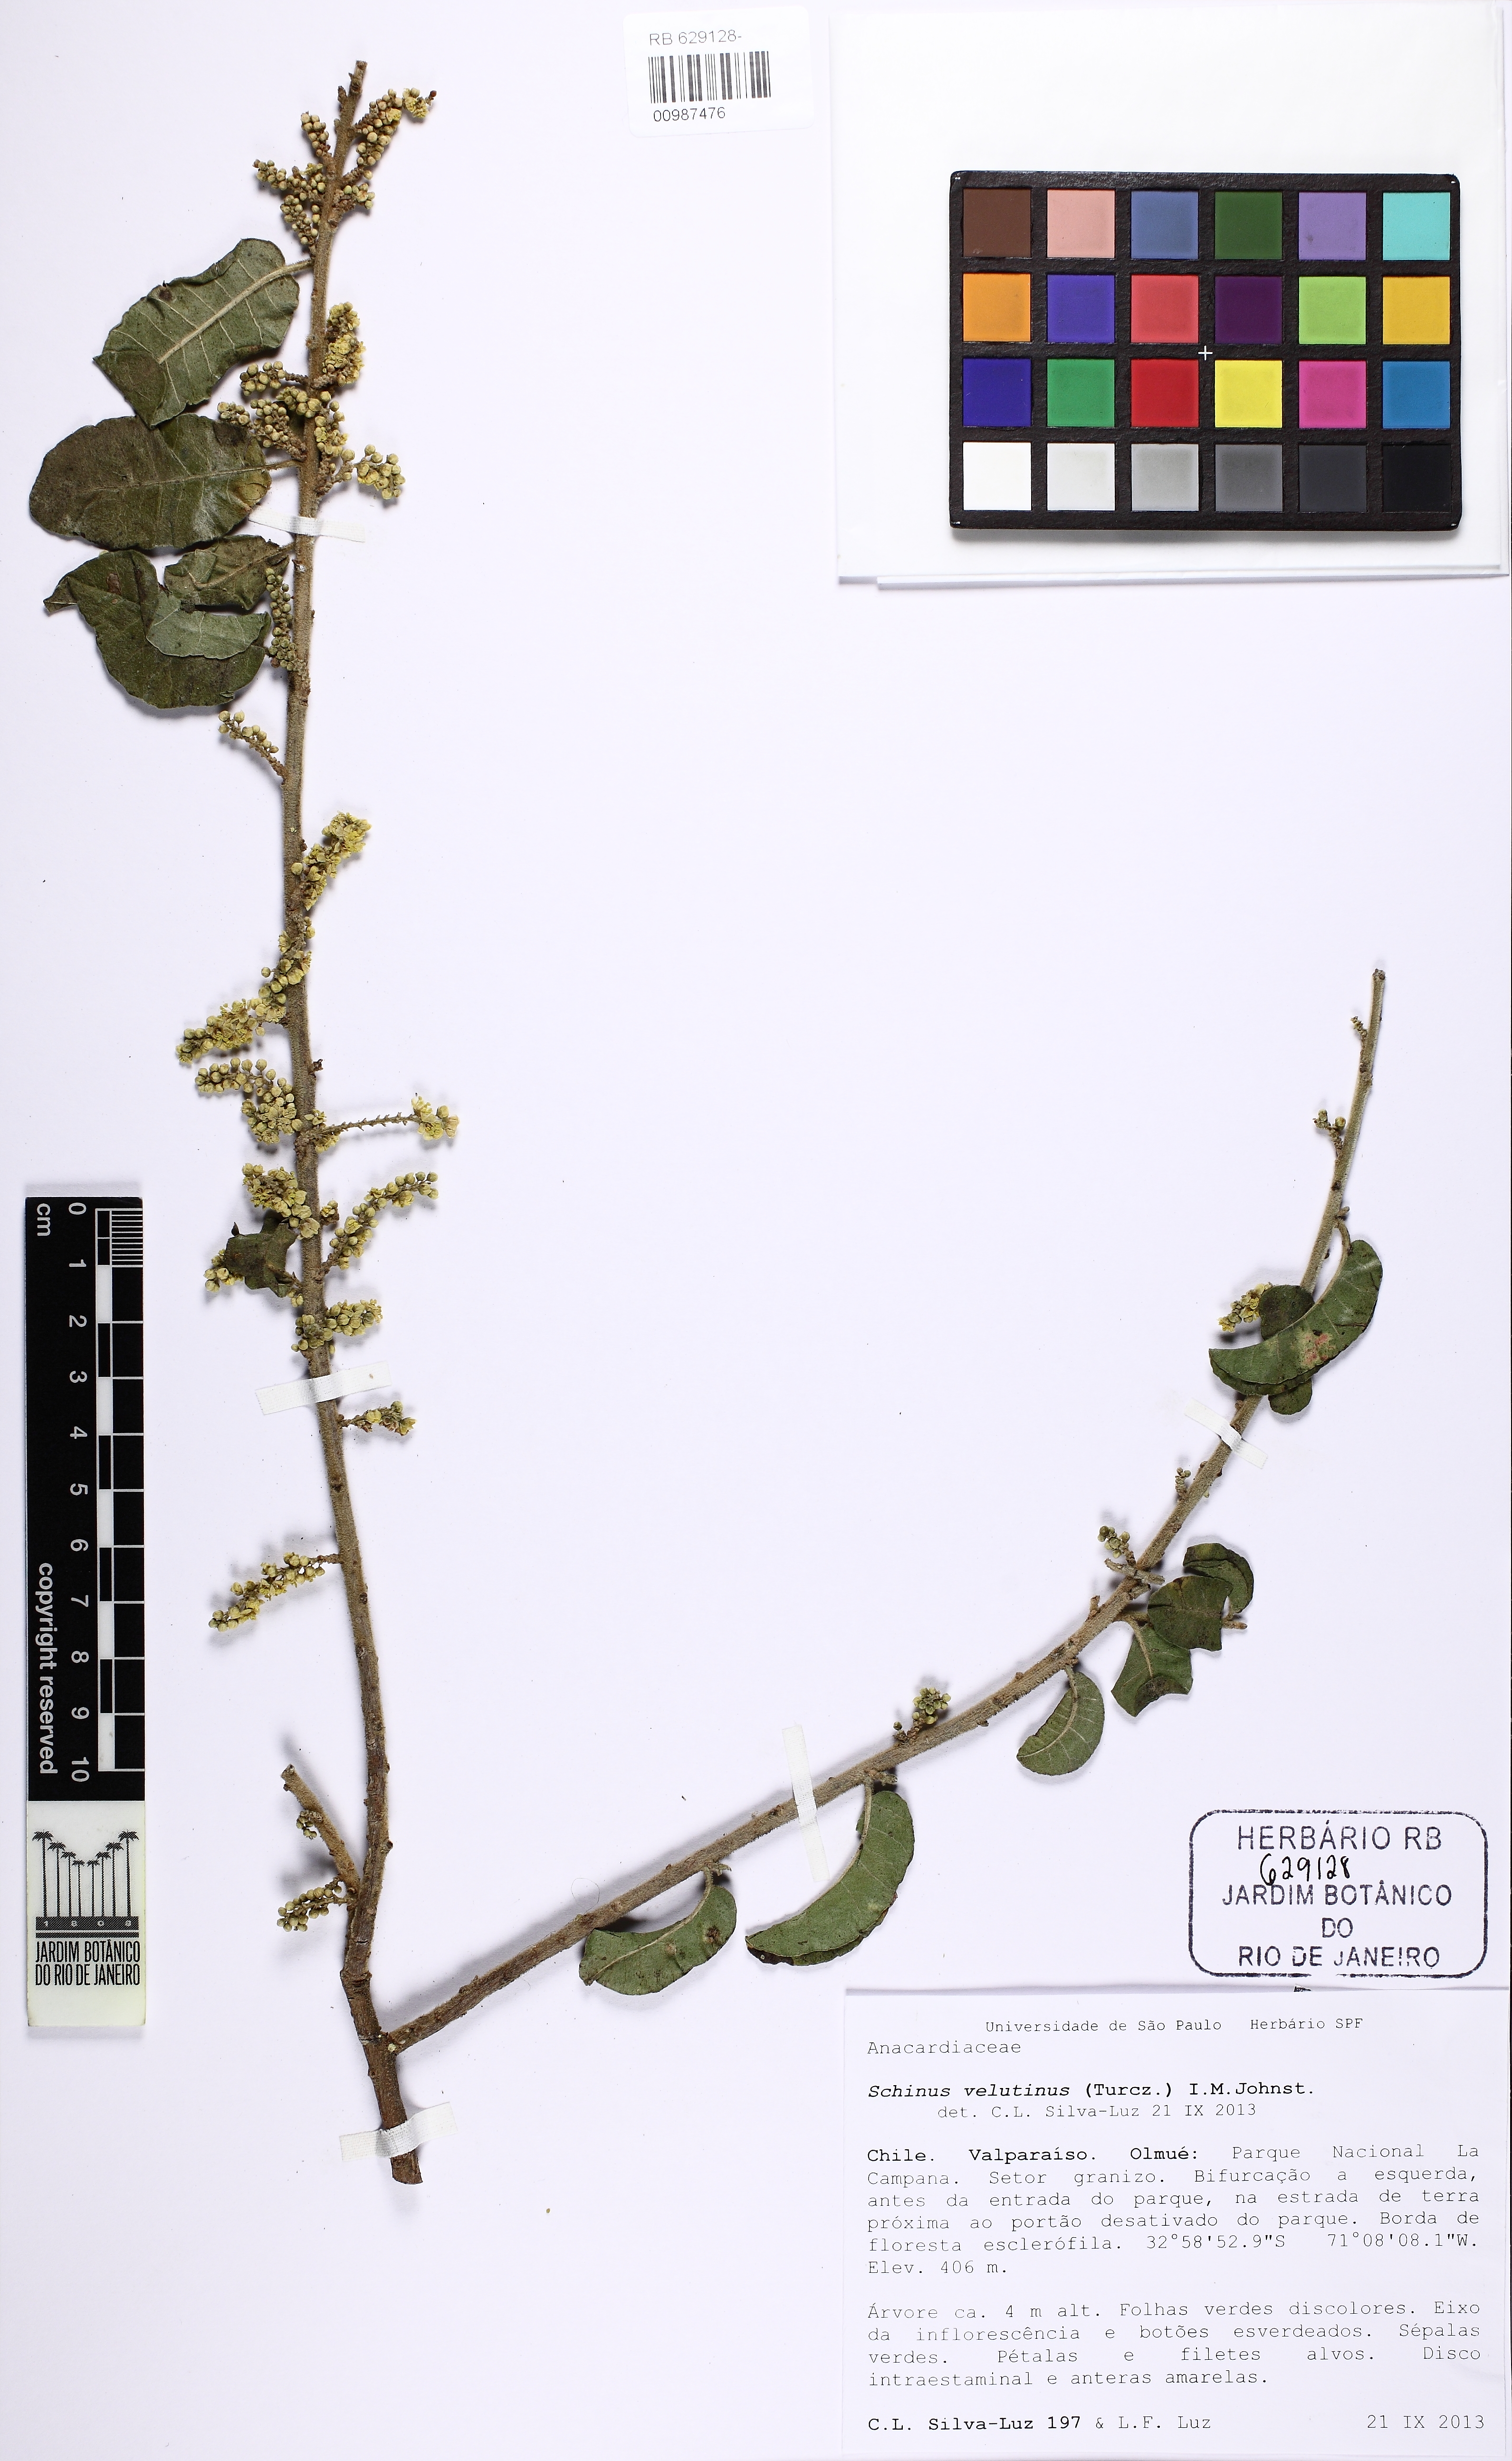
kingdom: Plantae
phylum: Tracheophyta
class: Magnoliopsida
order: Sapindales
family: Anacardiaceae
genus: Schinus
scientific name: Schinus latifolia
